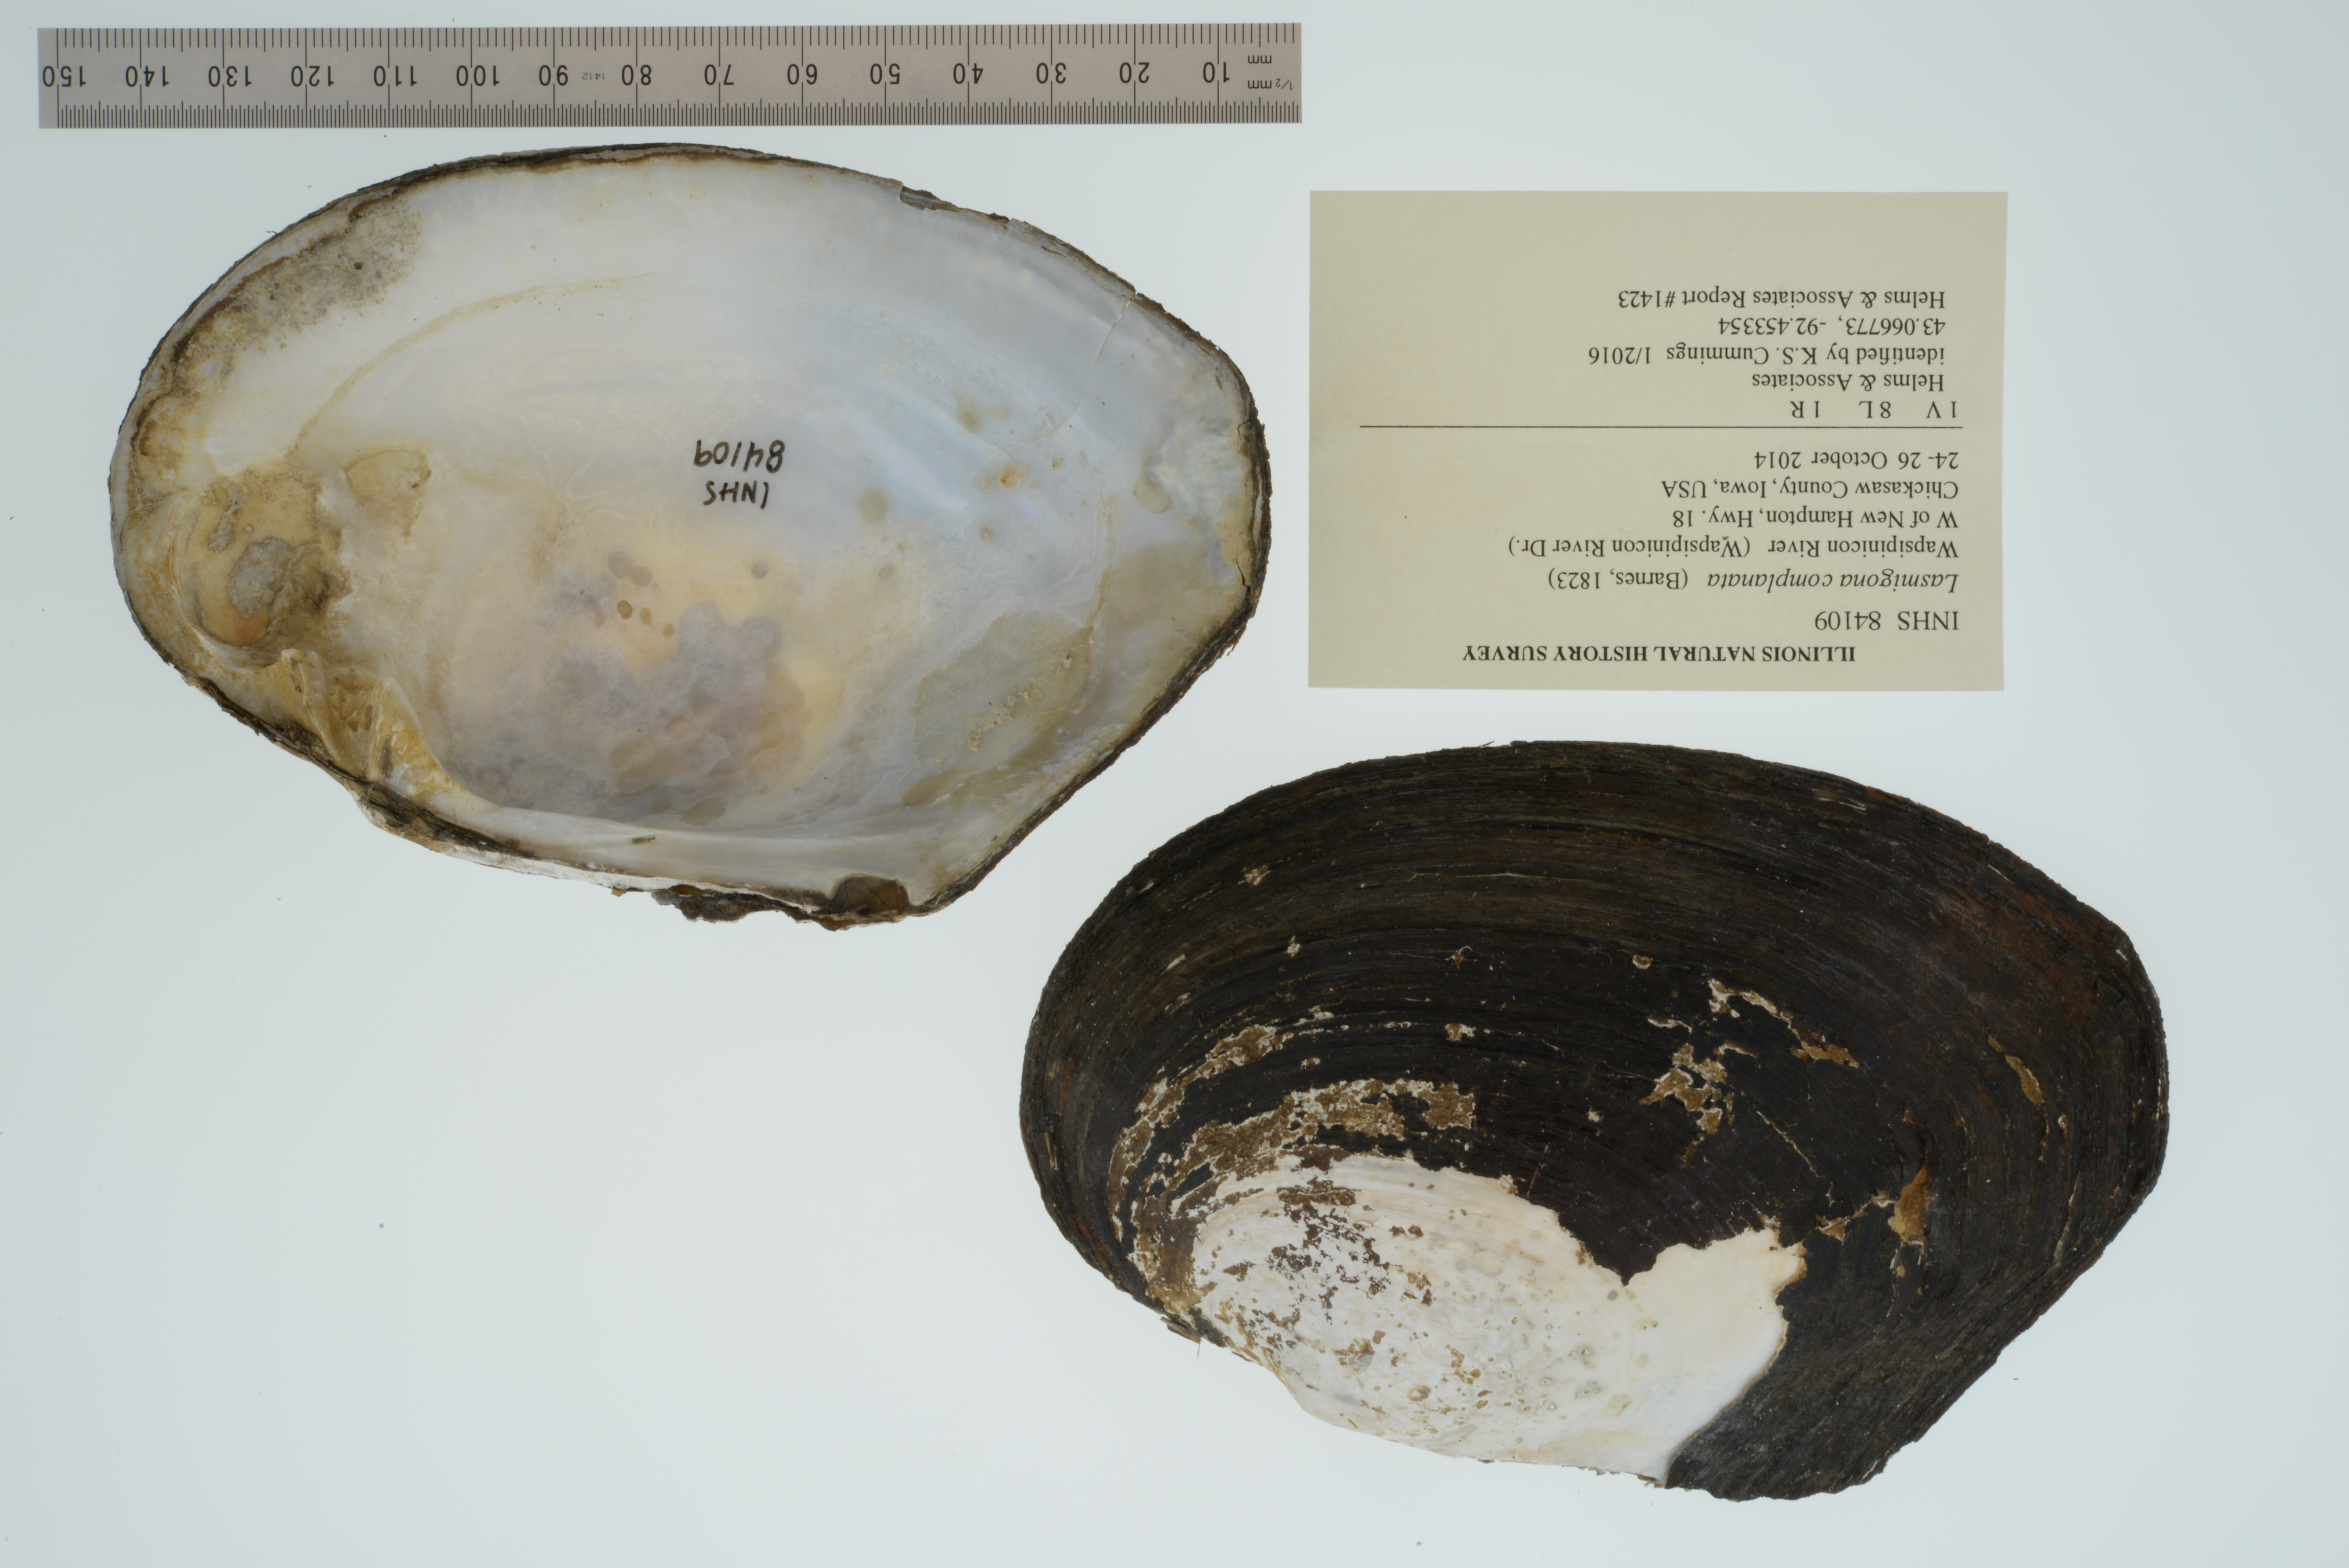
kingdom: Animalia
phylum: Mollusca
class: Bivalvia
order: Unionida
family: Unionidae
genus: Lasmigona
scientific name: Lasmigona complanata
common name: White heelsplitter
